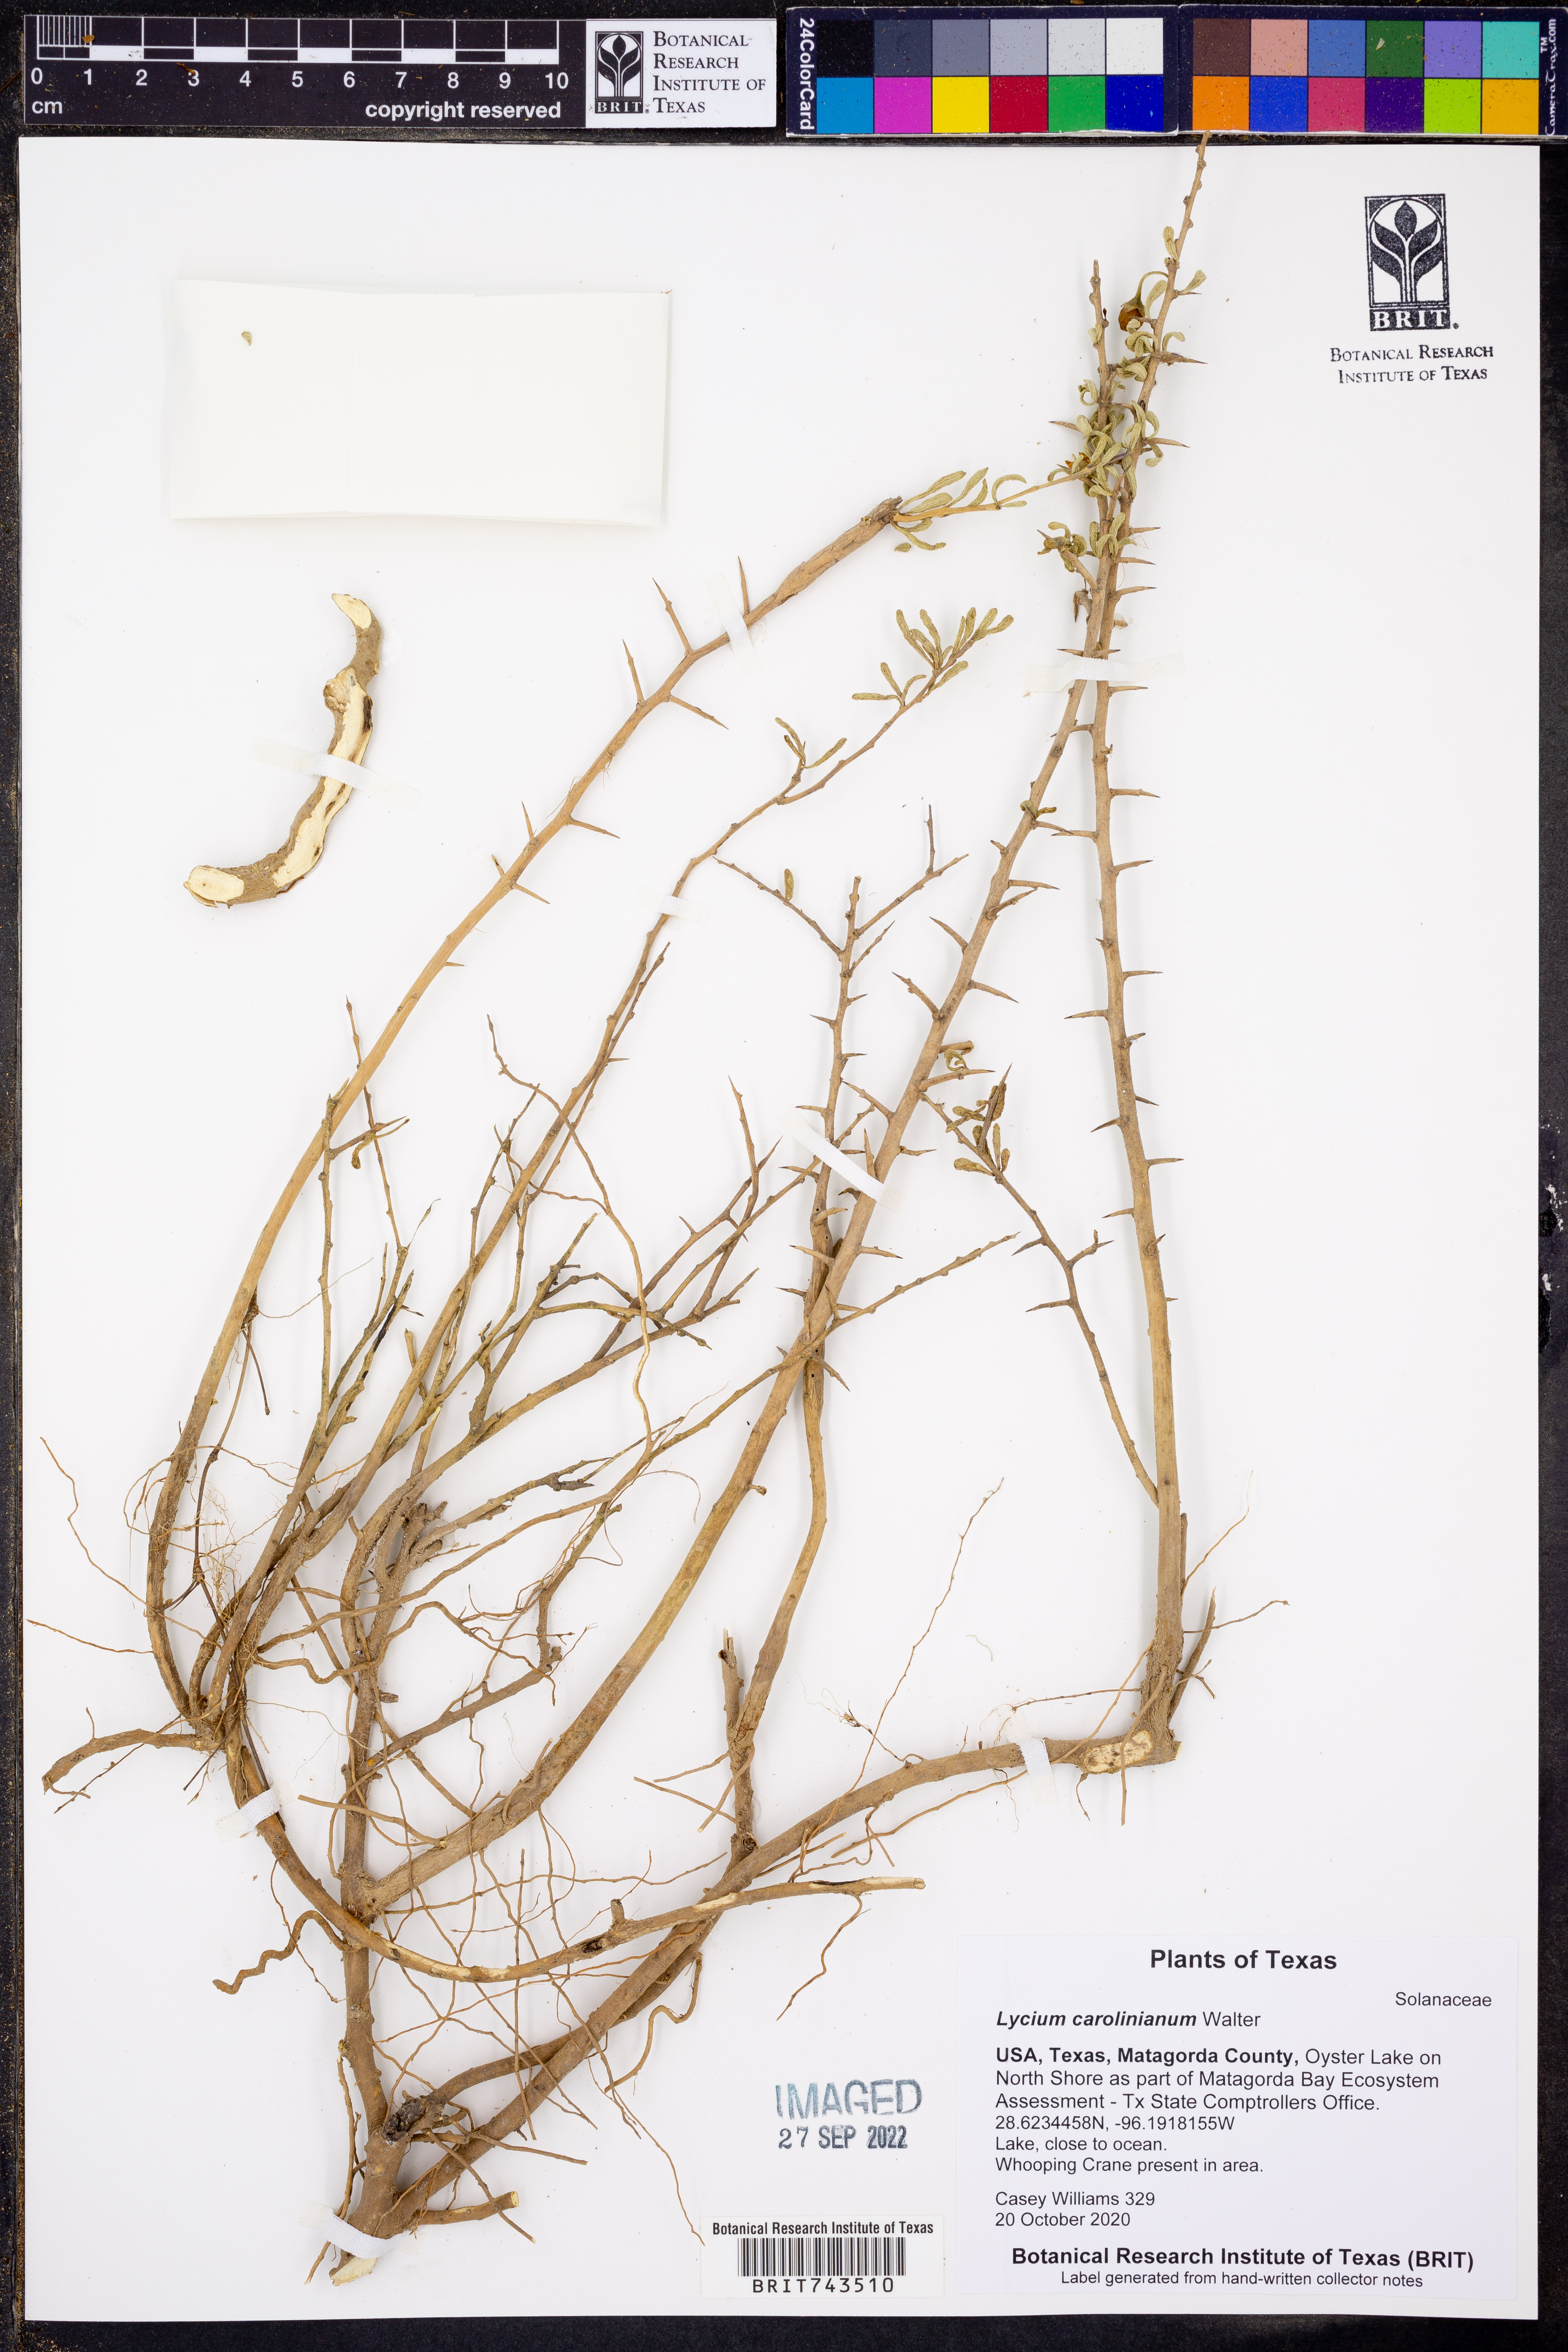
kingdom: Plantae
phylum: Tracheophyta
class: Magnoliopsida
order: Solanales
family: Solanaceae
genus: Lycium
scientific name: Lycium carolinianum
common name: Christmasberry
